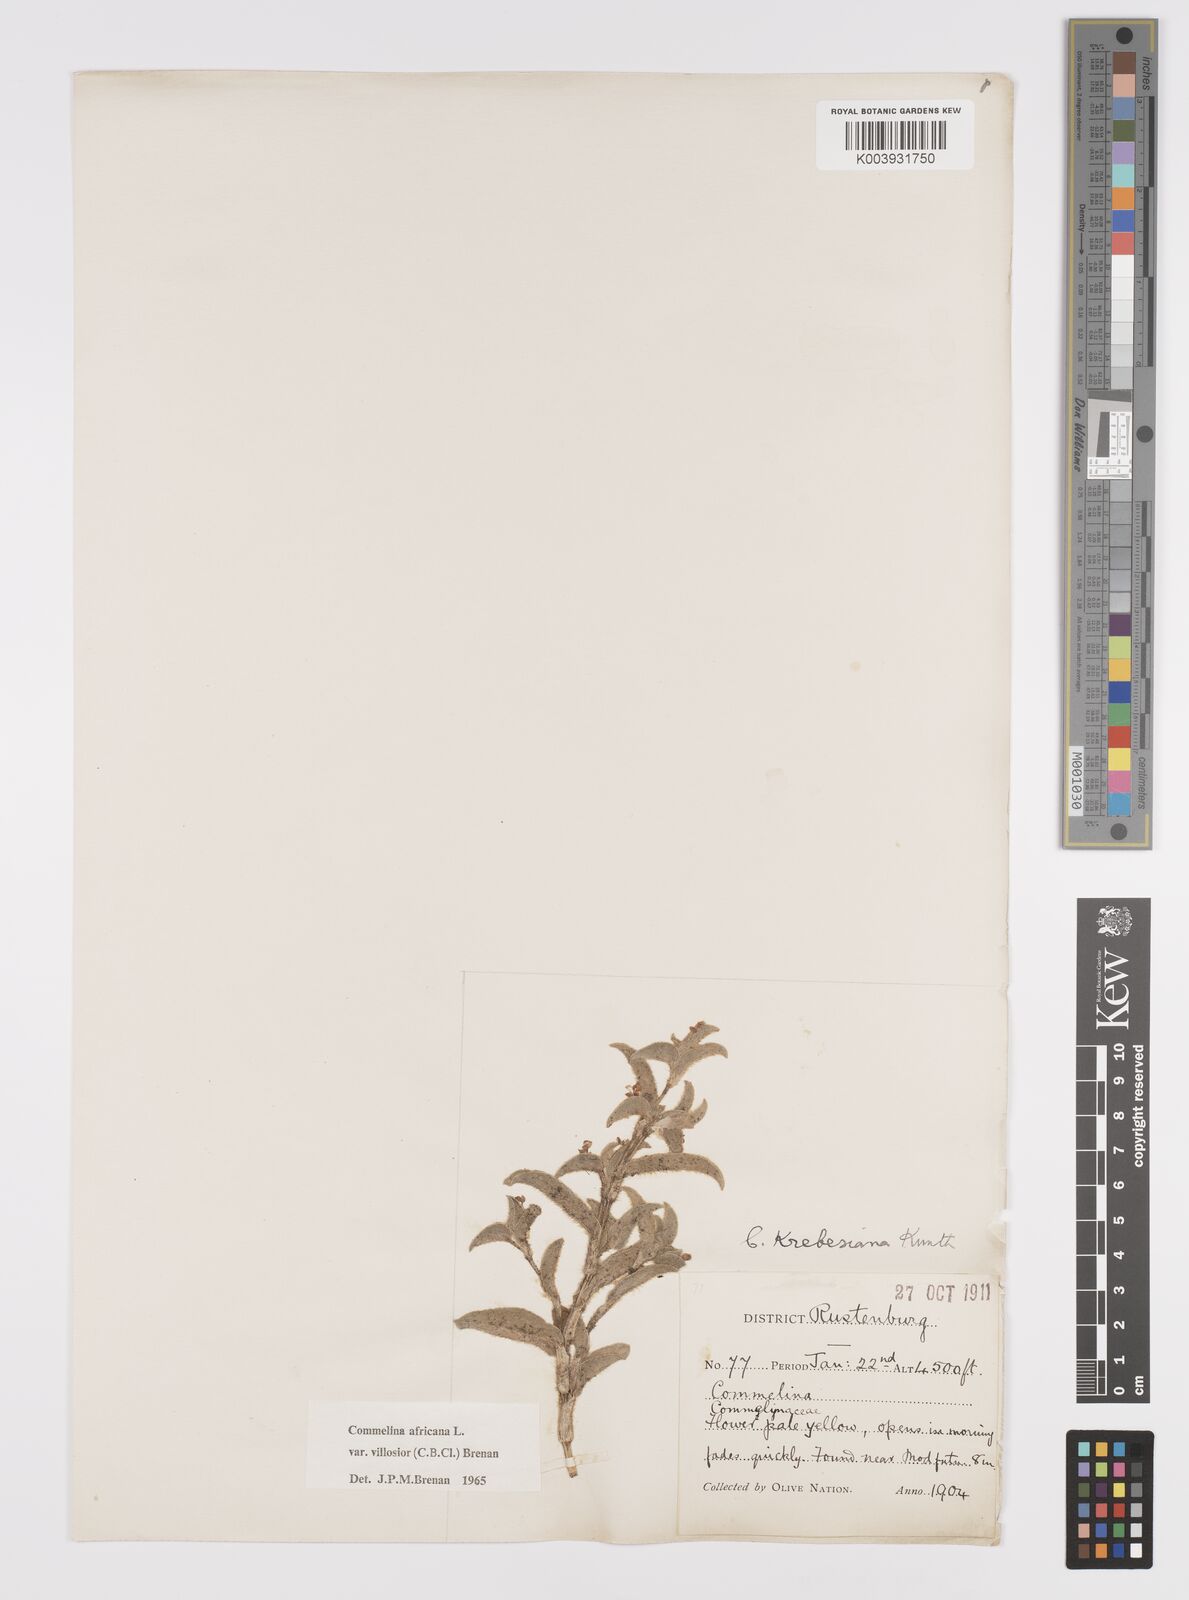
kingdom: Plantae
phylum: Tracheophyta
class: Liliopsida
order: Commelinales
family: Commelinaceae
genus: Commelina
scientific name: Commelina africana
